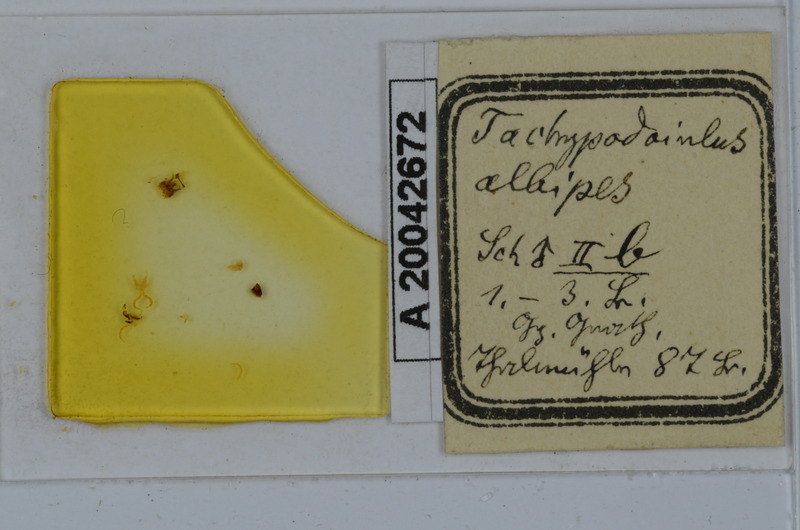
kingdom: Animalia
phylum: Arthropoda
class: Diplopoda
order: Julida
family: Julidae
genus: Tachypodoiulus
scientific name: Tachypodoiulus niger
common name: White-legged snake millipede
